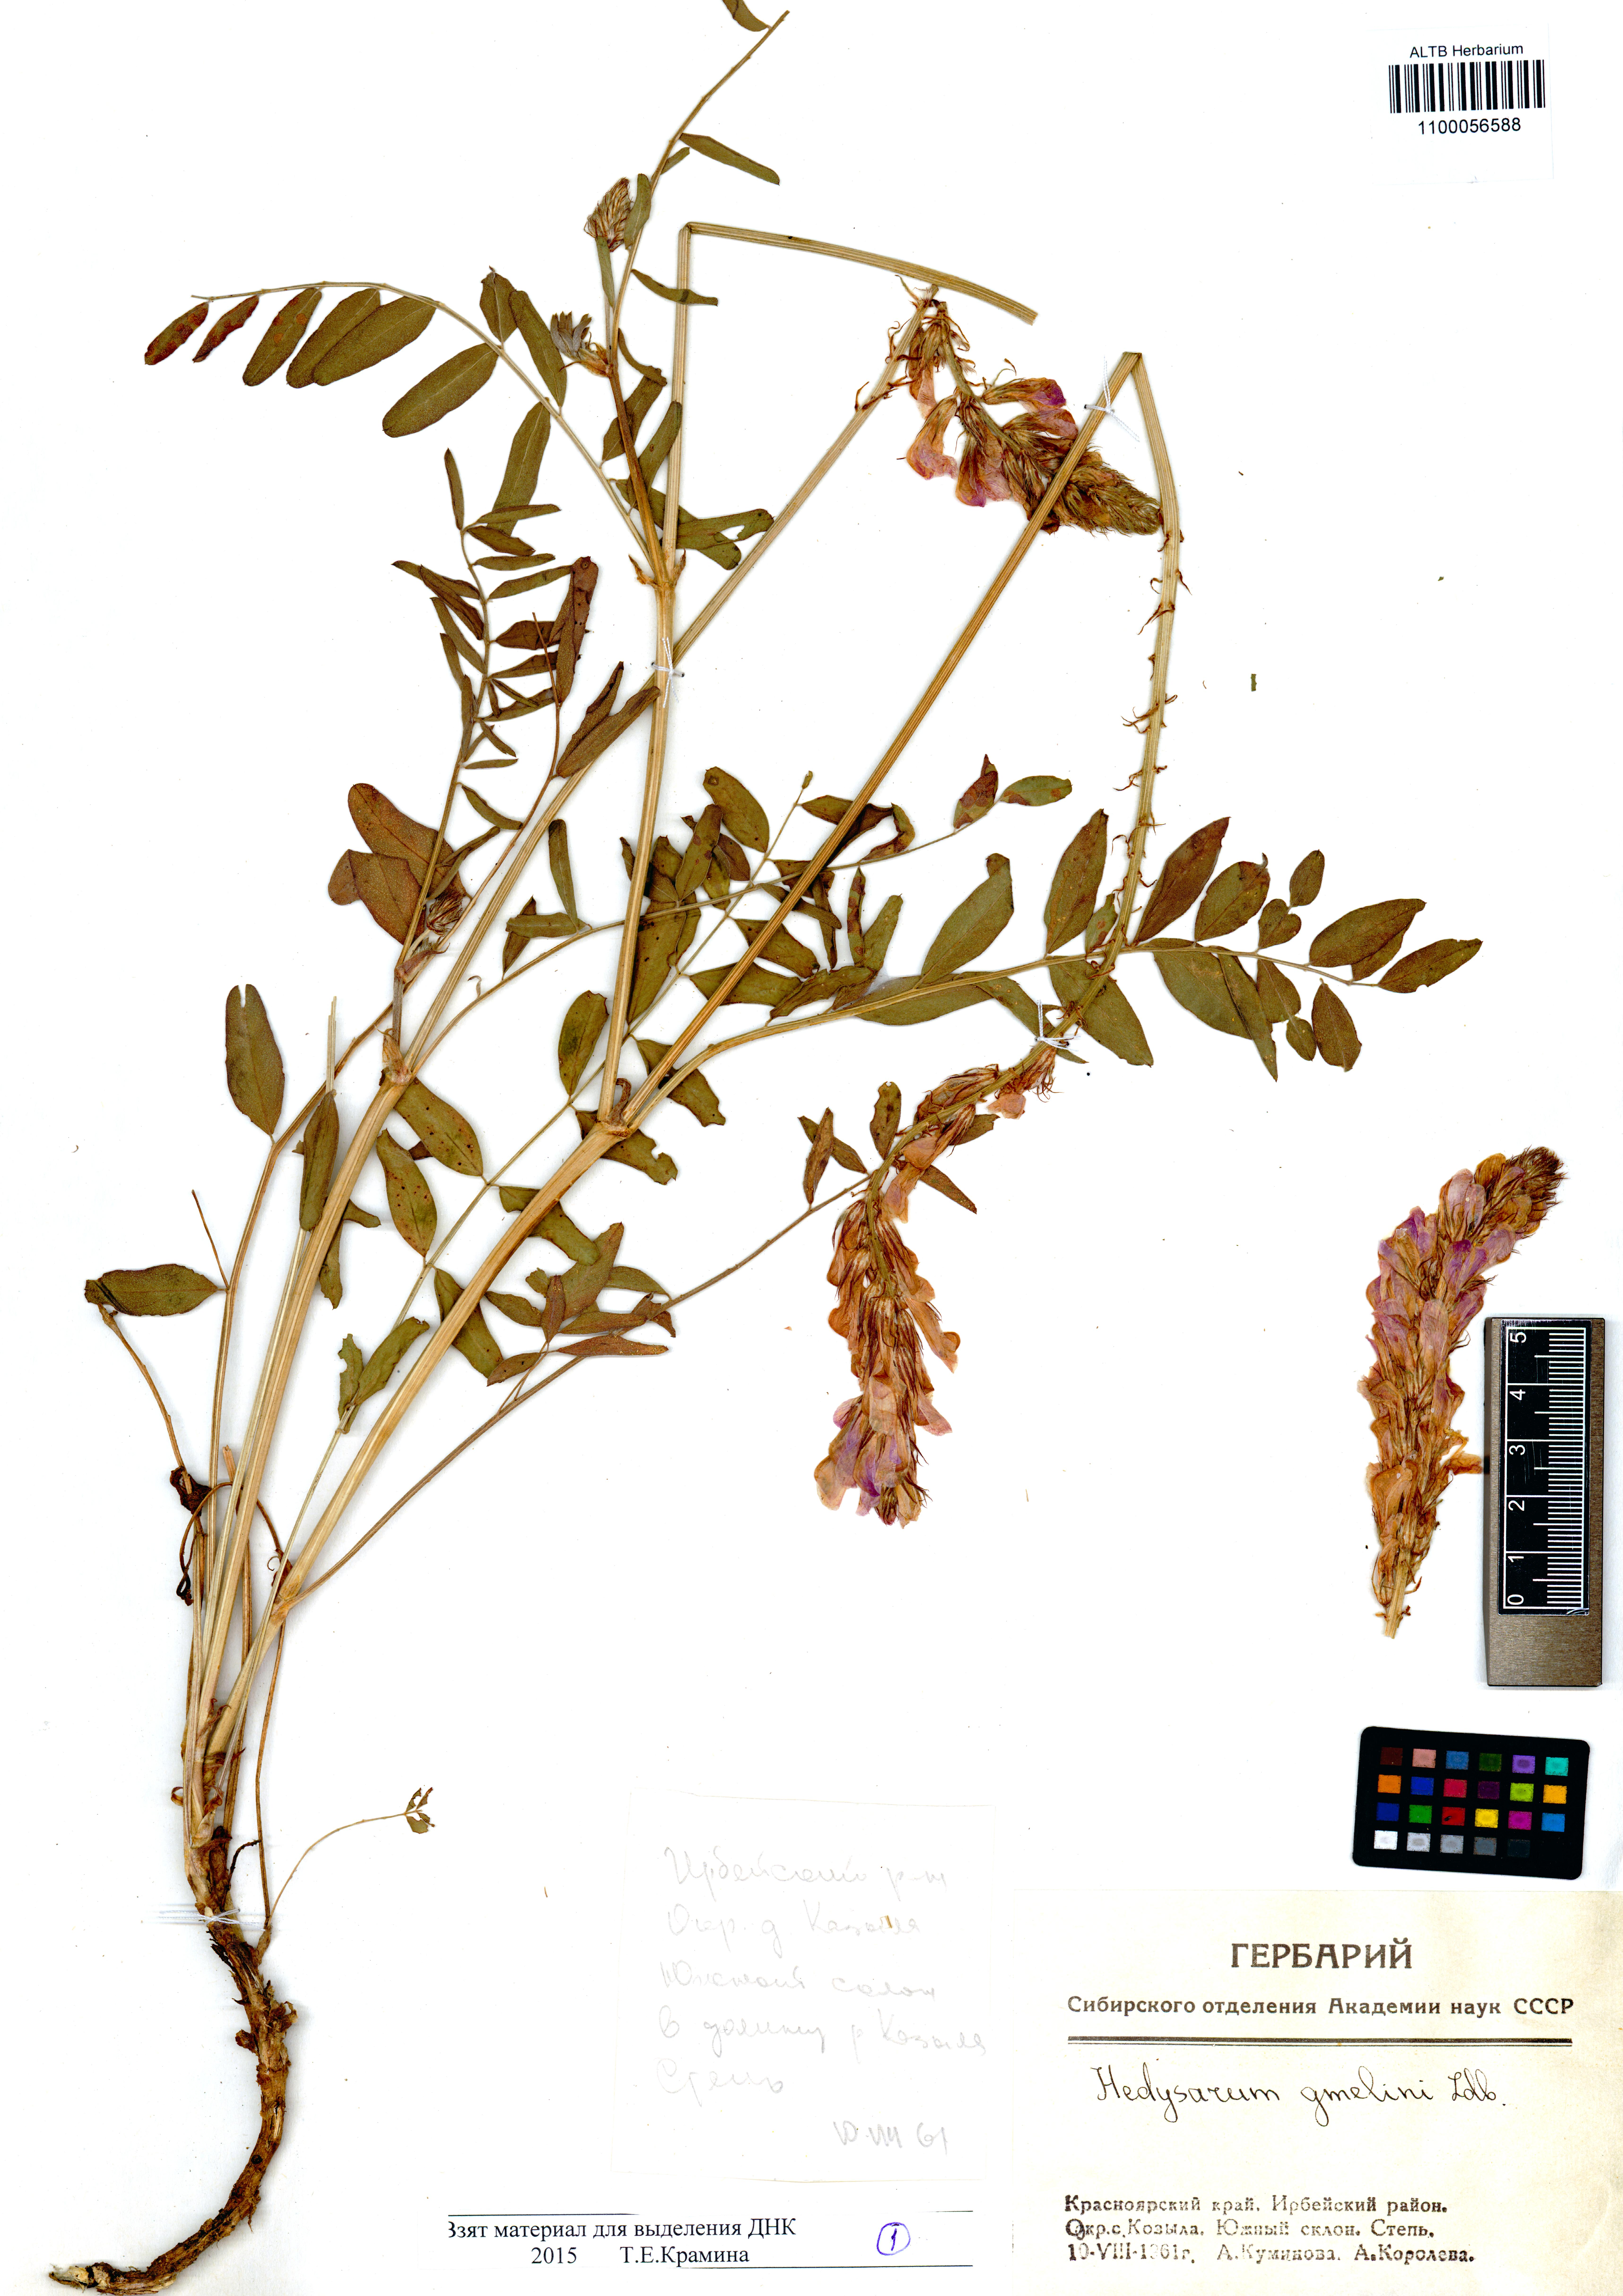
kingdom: Plantae
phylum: Tracheophyta
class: Magnoliopsida
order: Fabales
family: Fabaceae
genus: Hedysarum
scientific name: Hedysarum gmelinii
